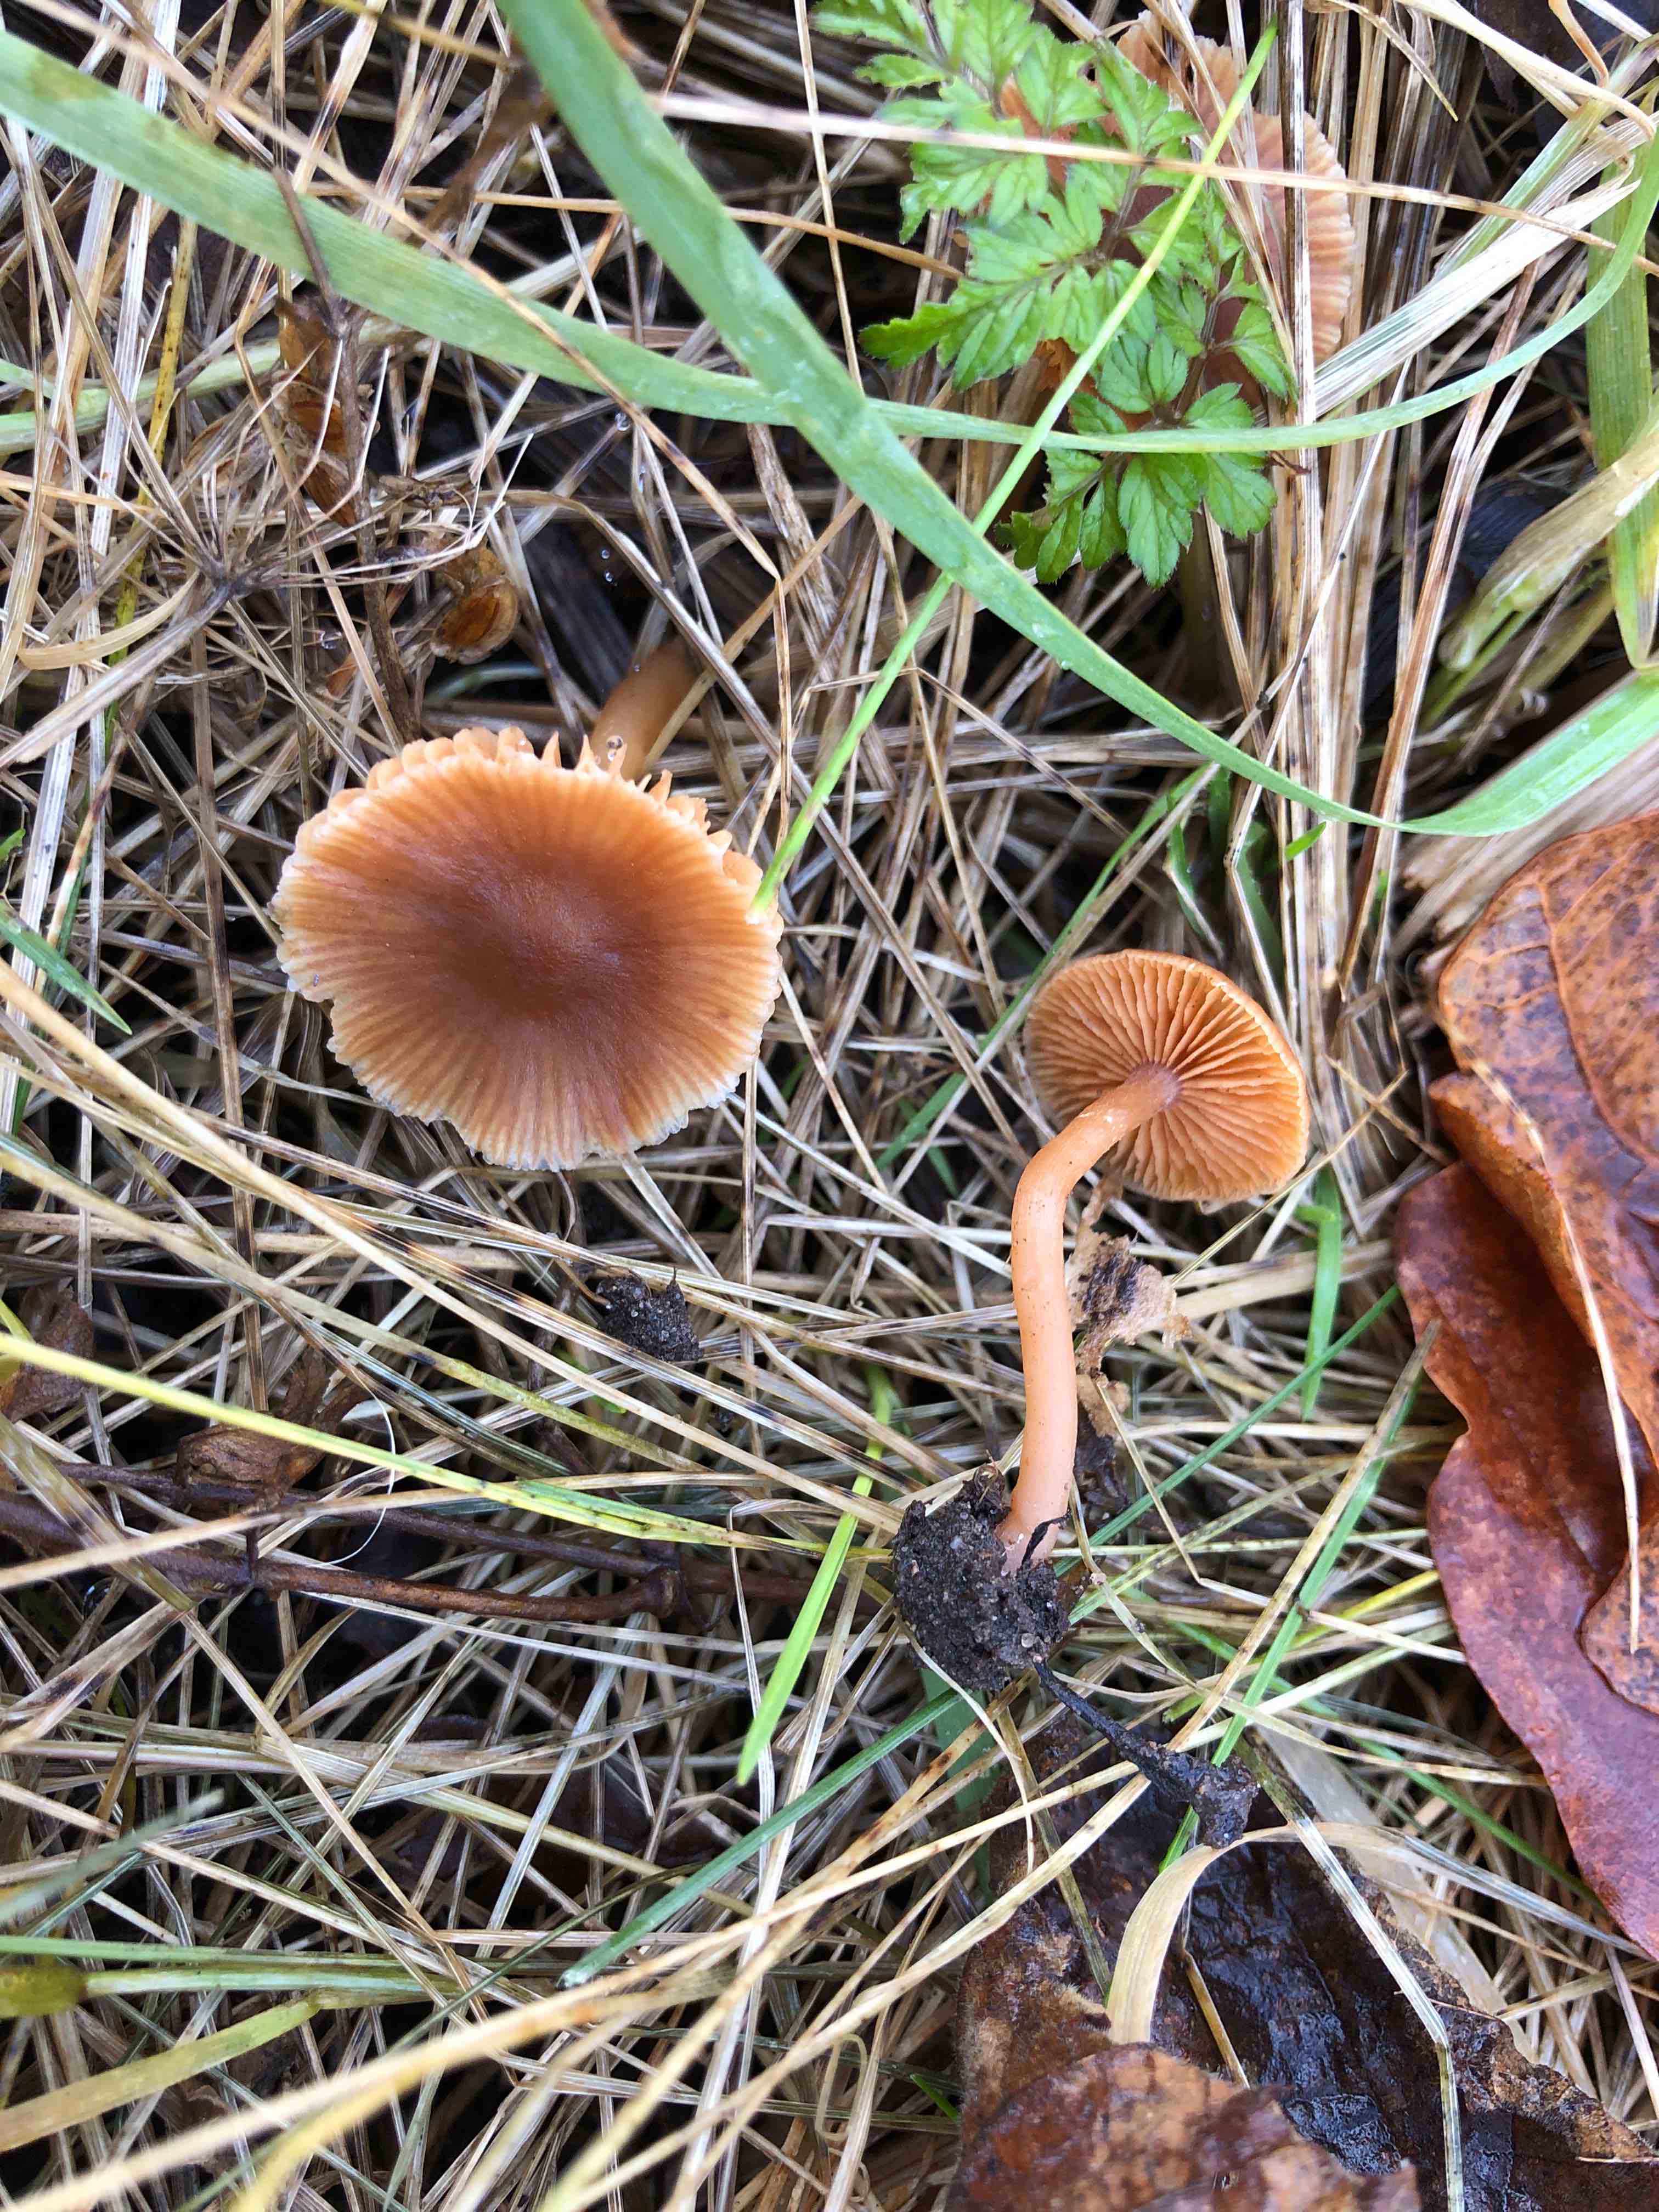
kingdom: Fungi
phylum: Basidiomycota
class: Agaricomycetes
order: Agaricales
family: Tubariaceae
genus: Tubaria
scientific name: Tubaria furfuracea
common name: kliddet fnughat
